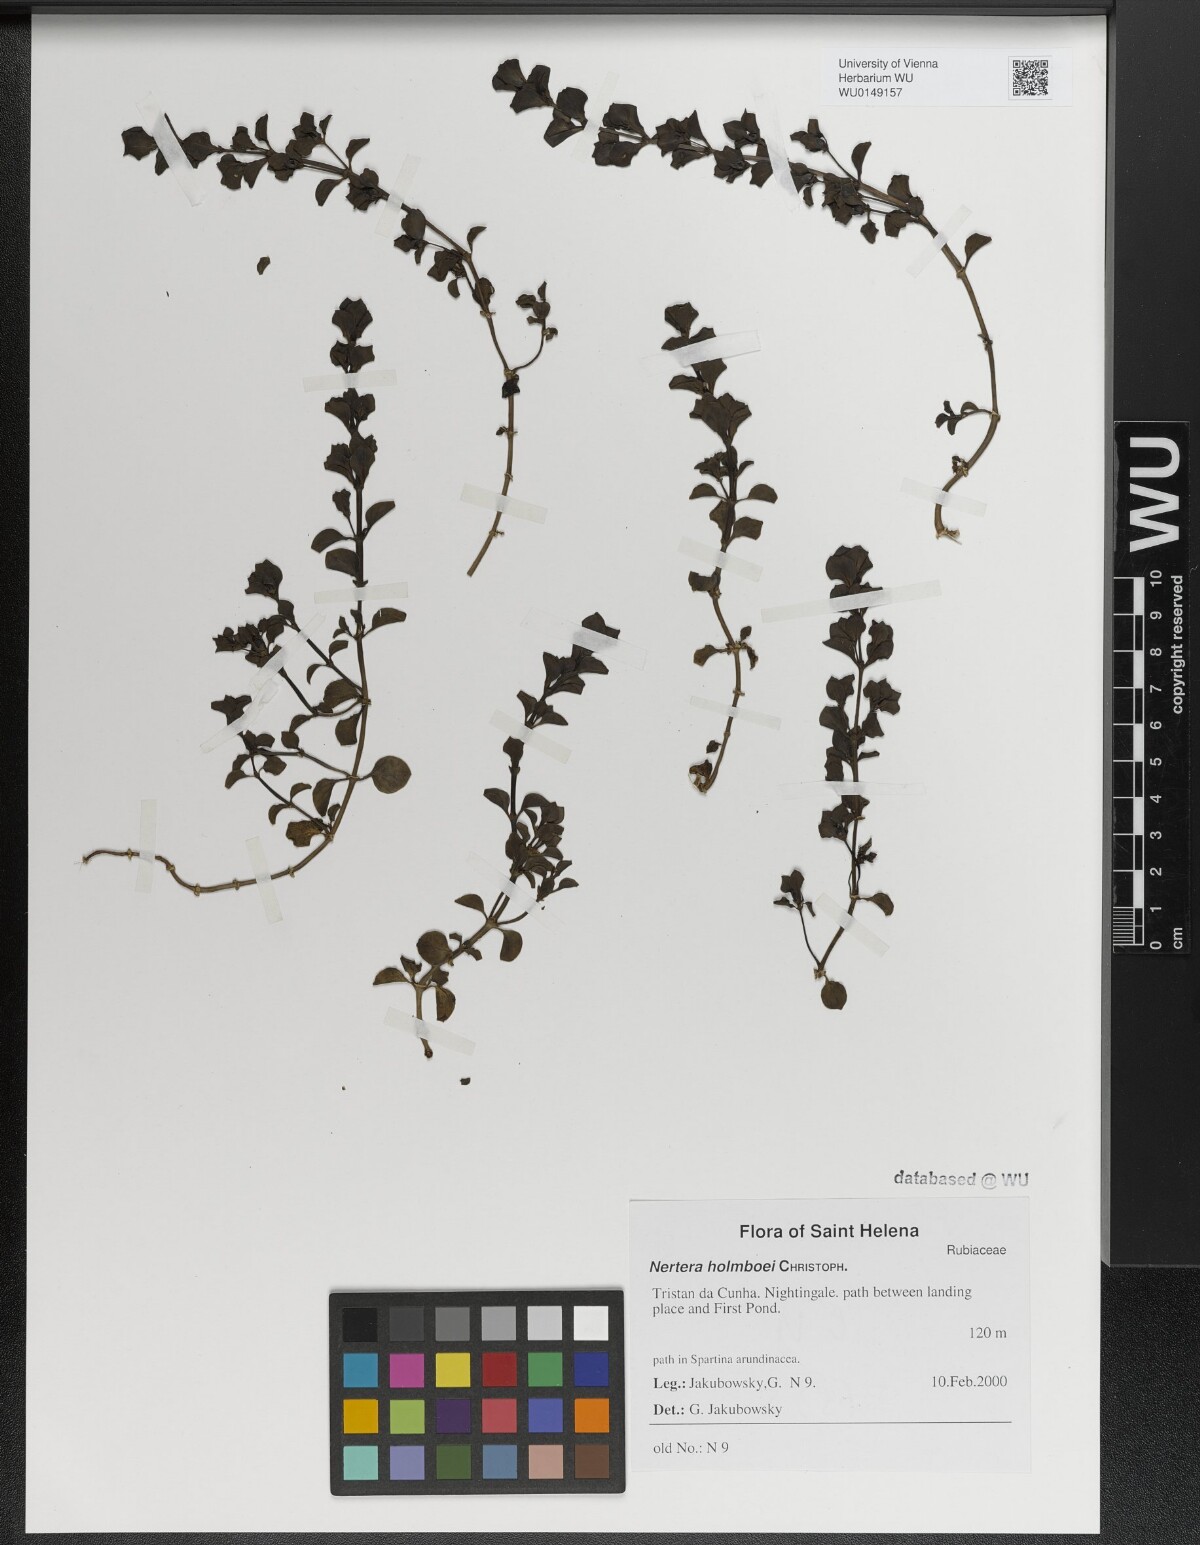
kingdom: Plantae
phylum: Tracheophyta
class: Magnoliopsida
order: Gentianales
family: Rubiaceae
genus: Nertera
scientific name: Nertera holmboei
